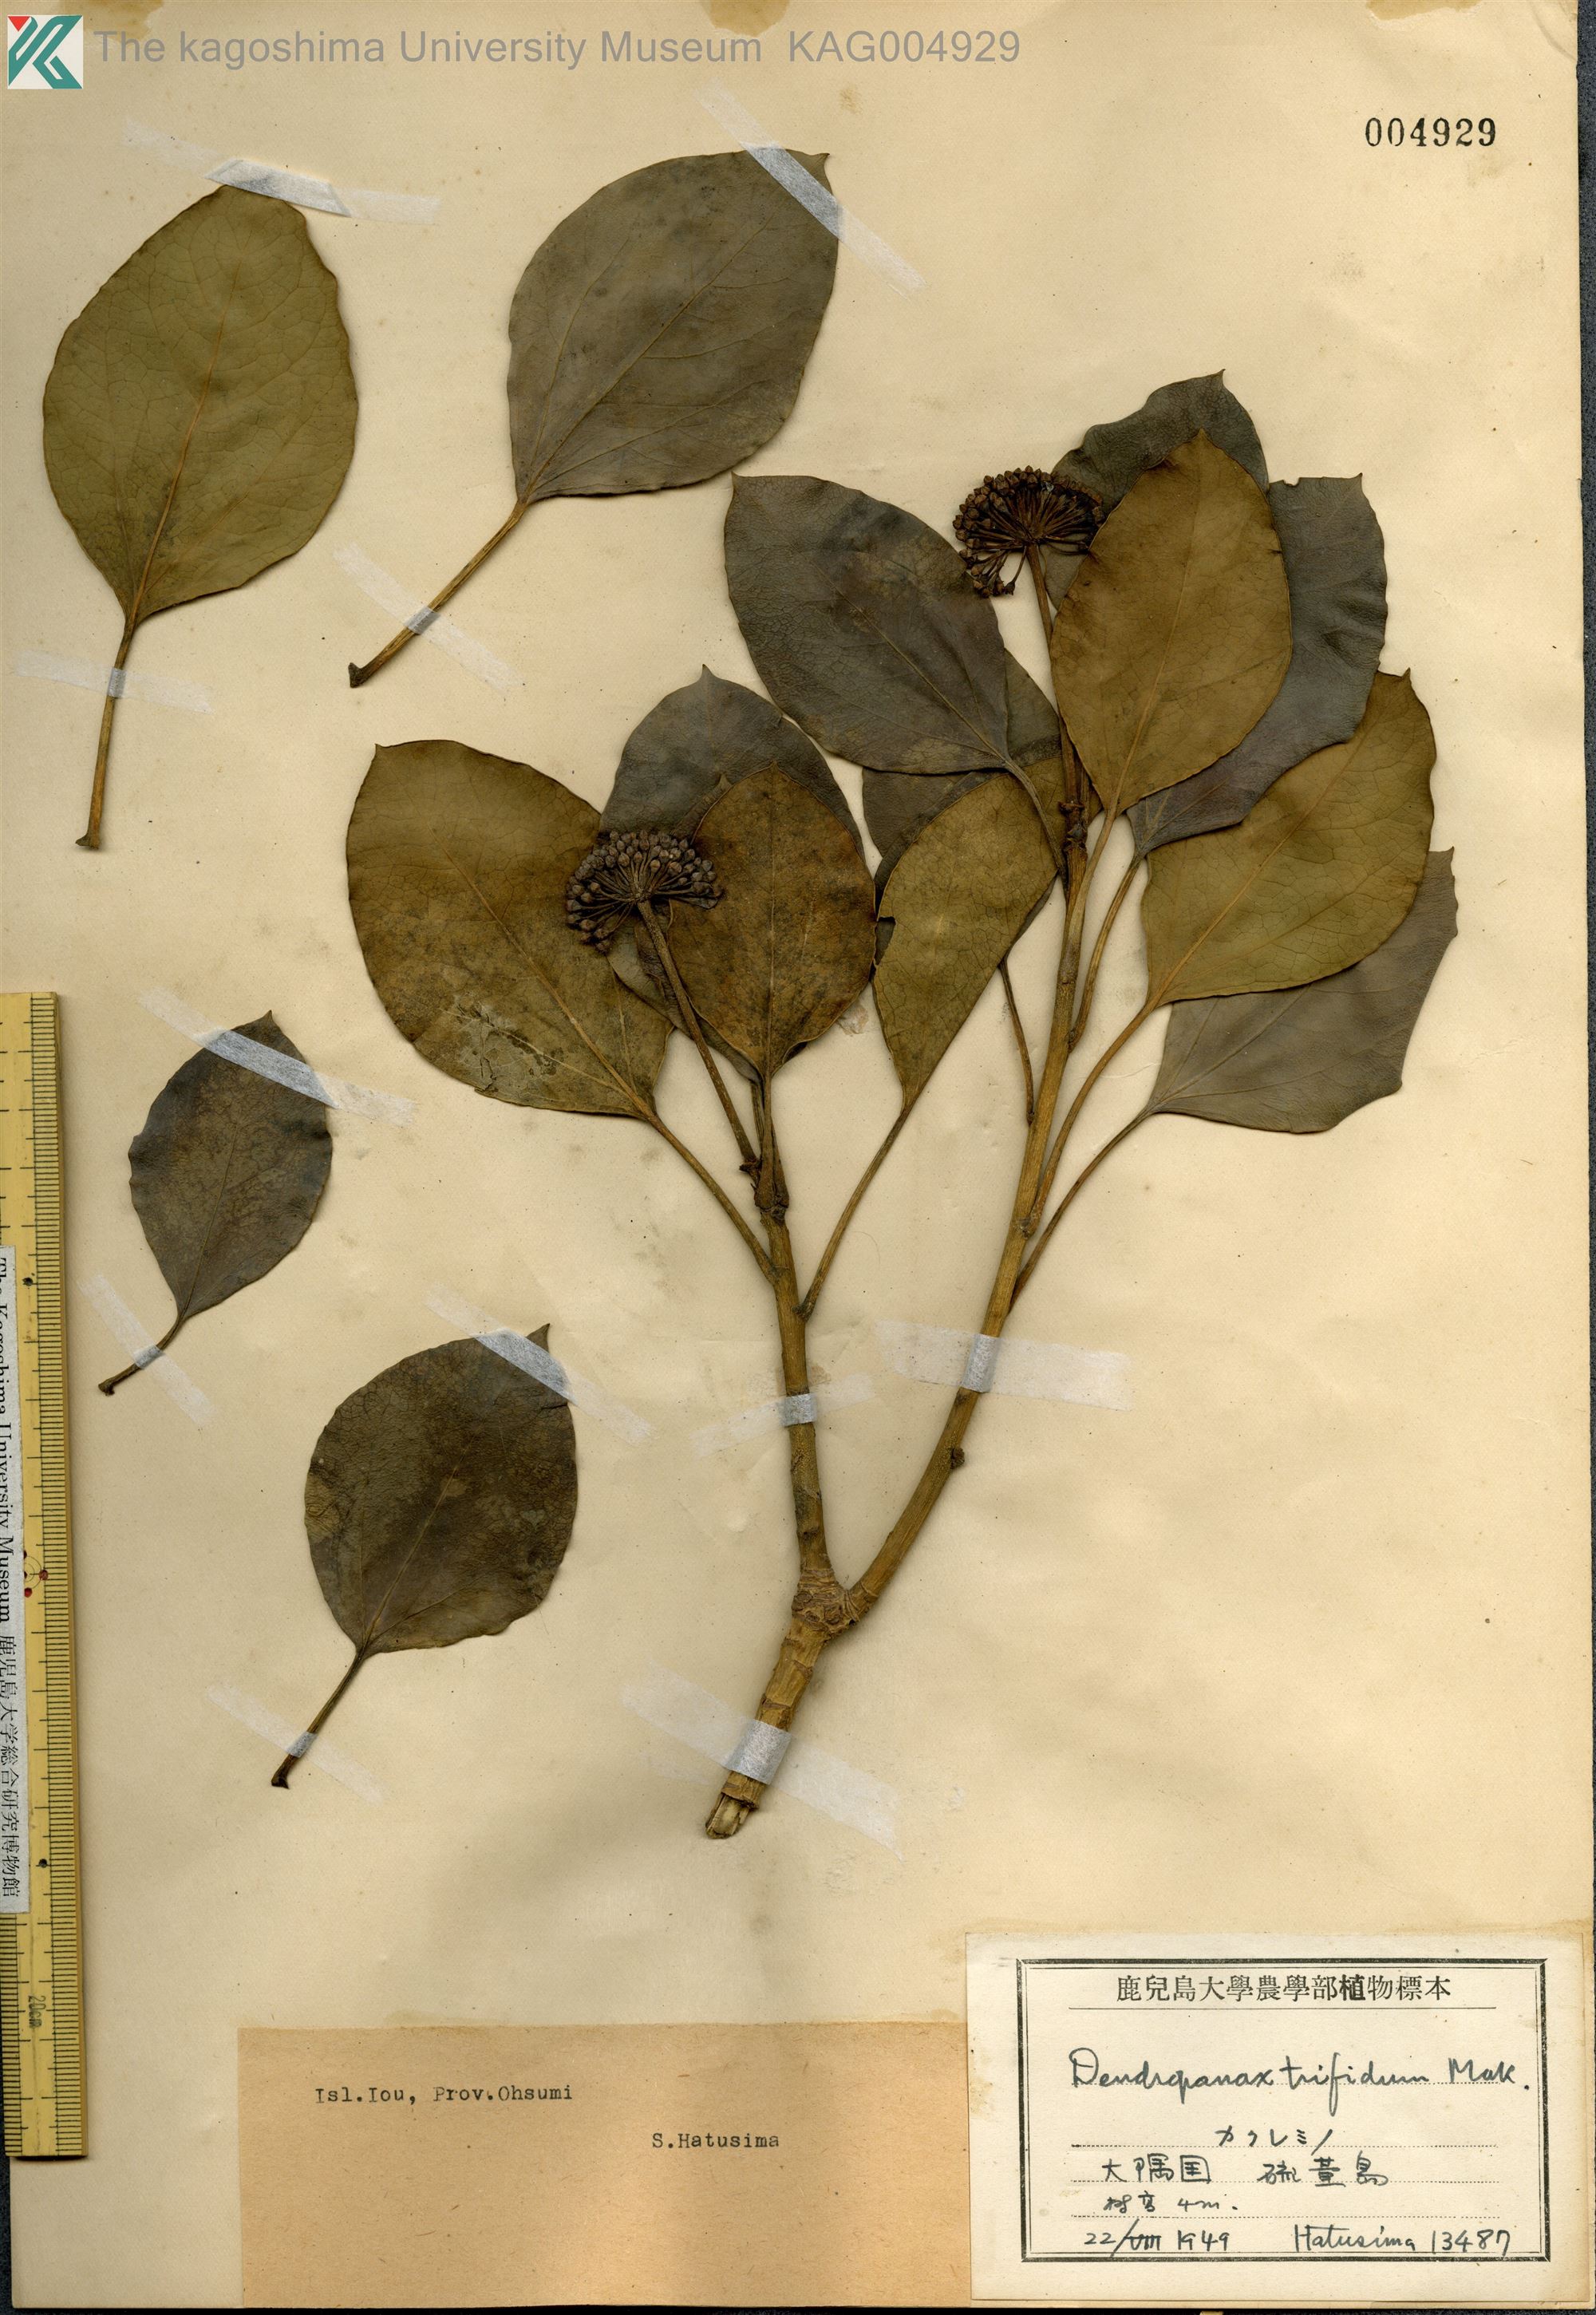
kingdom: Plantae
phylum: Tracheophyta
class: Magnoliopsida
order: Apiales
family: Araliaceae
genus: Dendropanax
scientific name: Dendropanax trifidus
